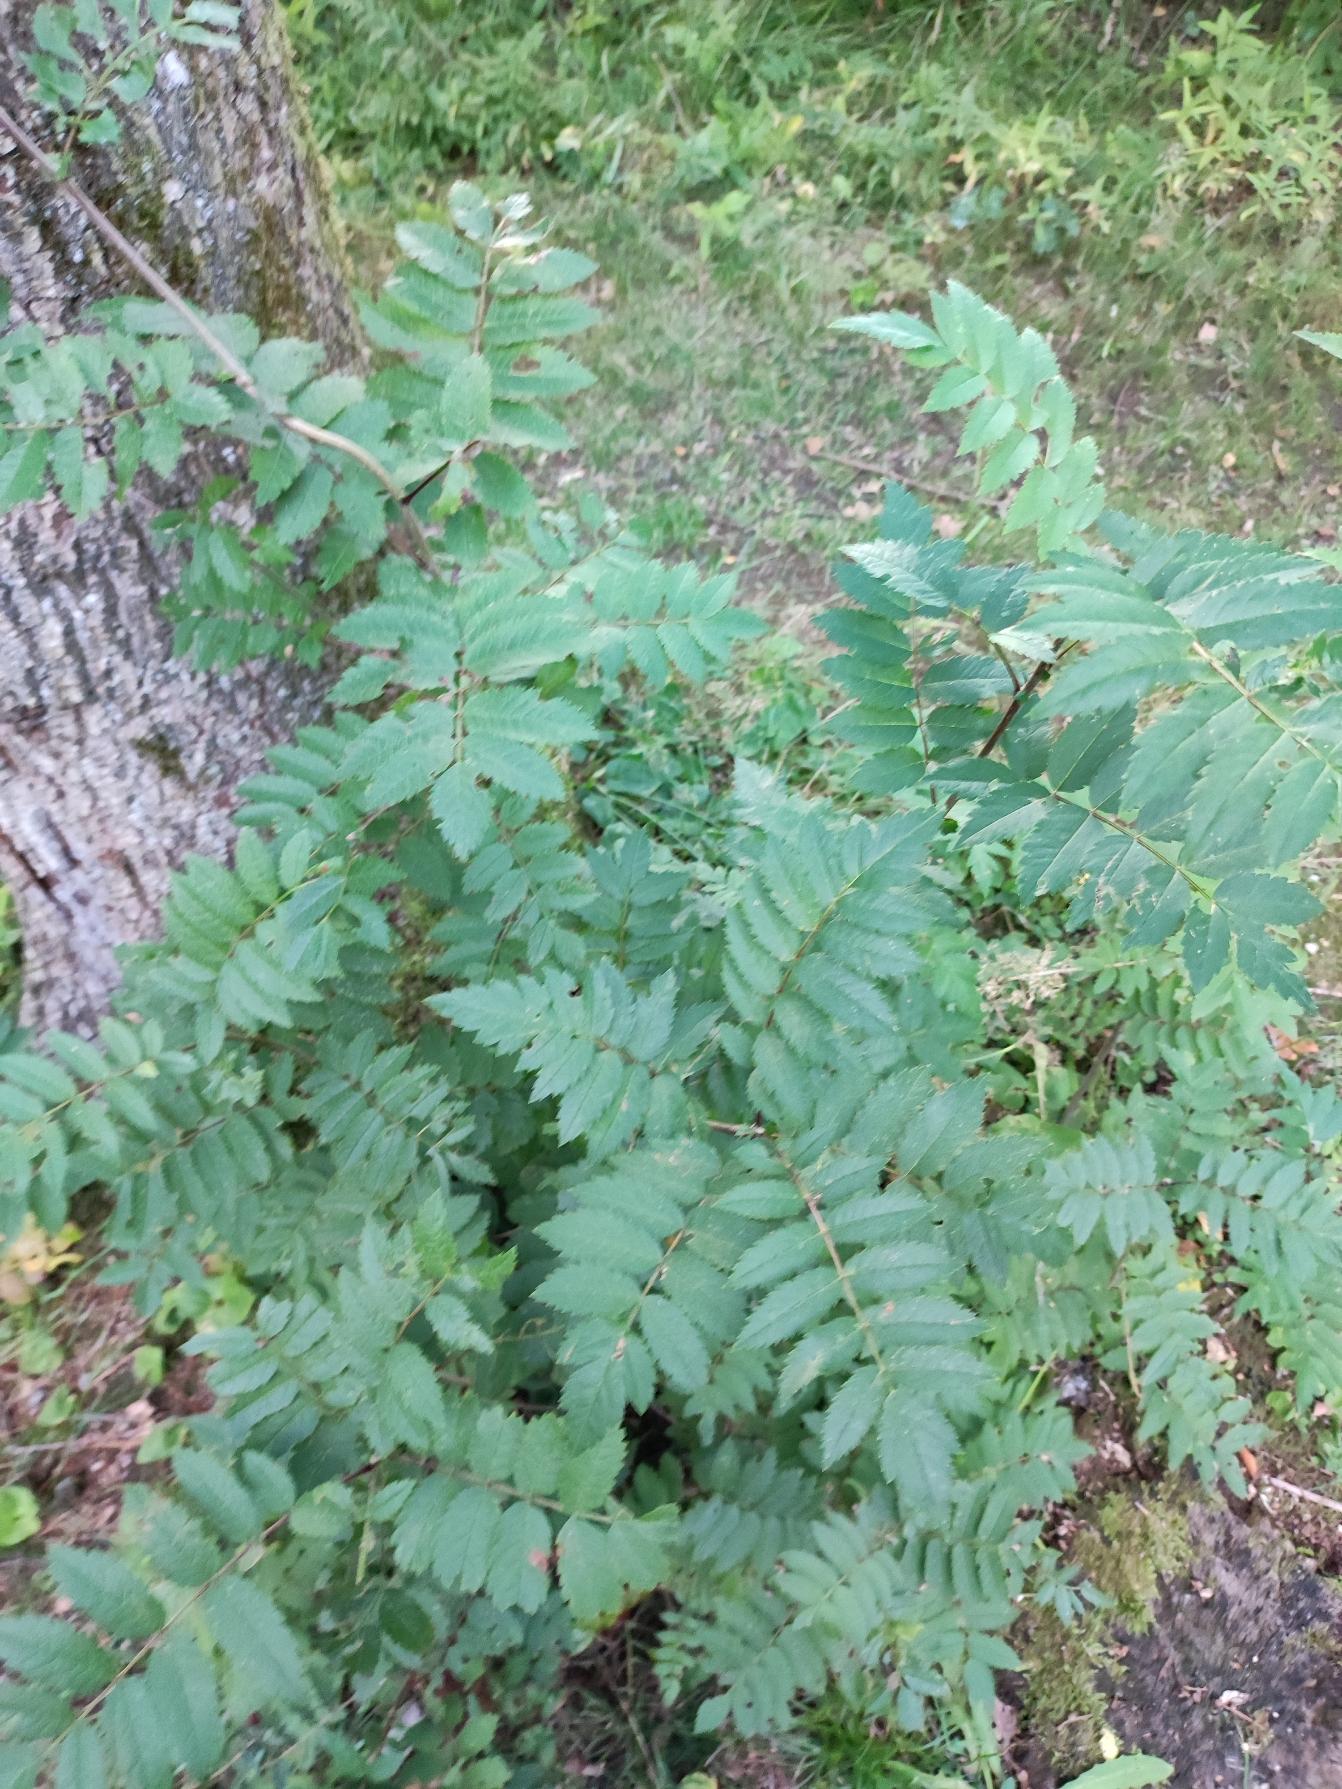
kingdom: Plantae
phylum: Tracheophyta
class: Magnoliopsida
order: Rosales
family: Rosaceae
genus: Sorbus
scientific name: Sorbus aucuparia
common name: Almindelig røn
